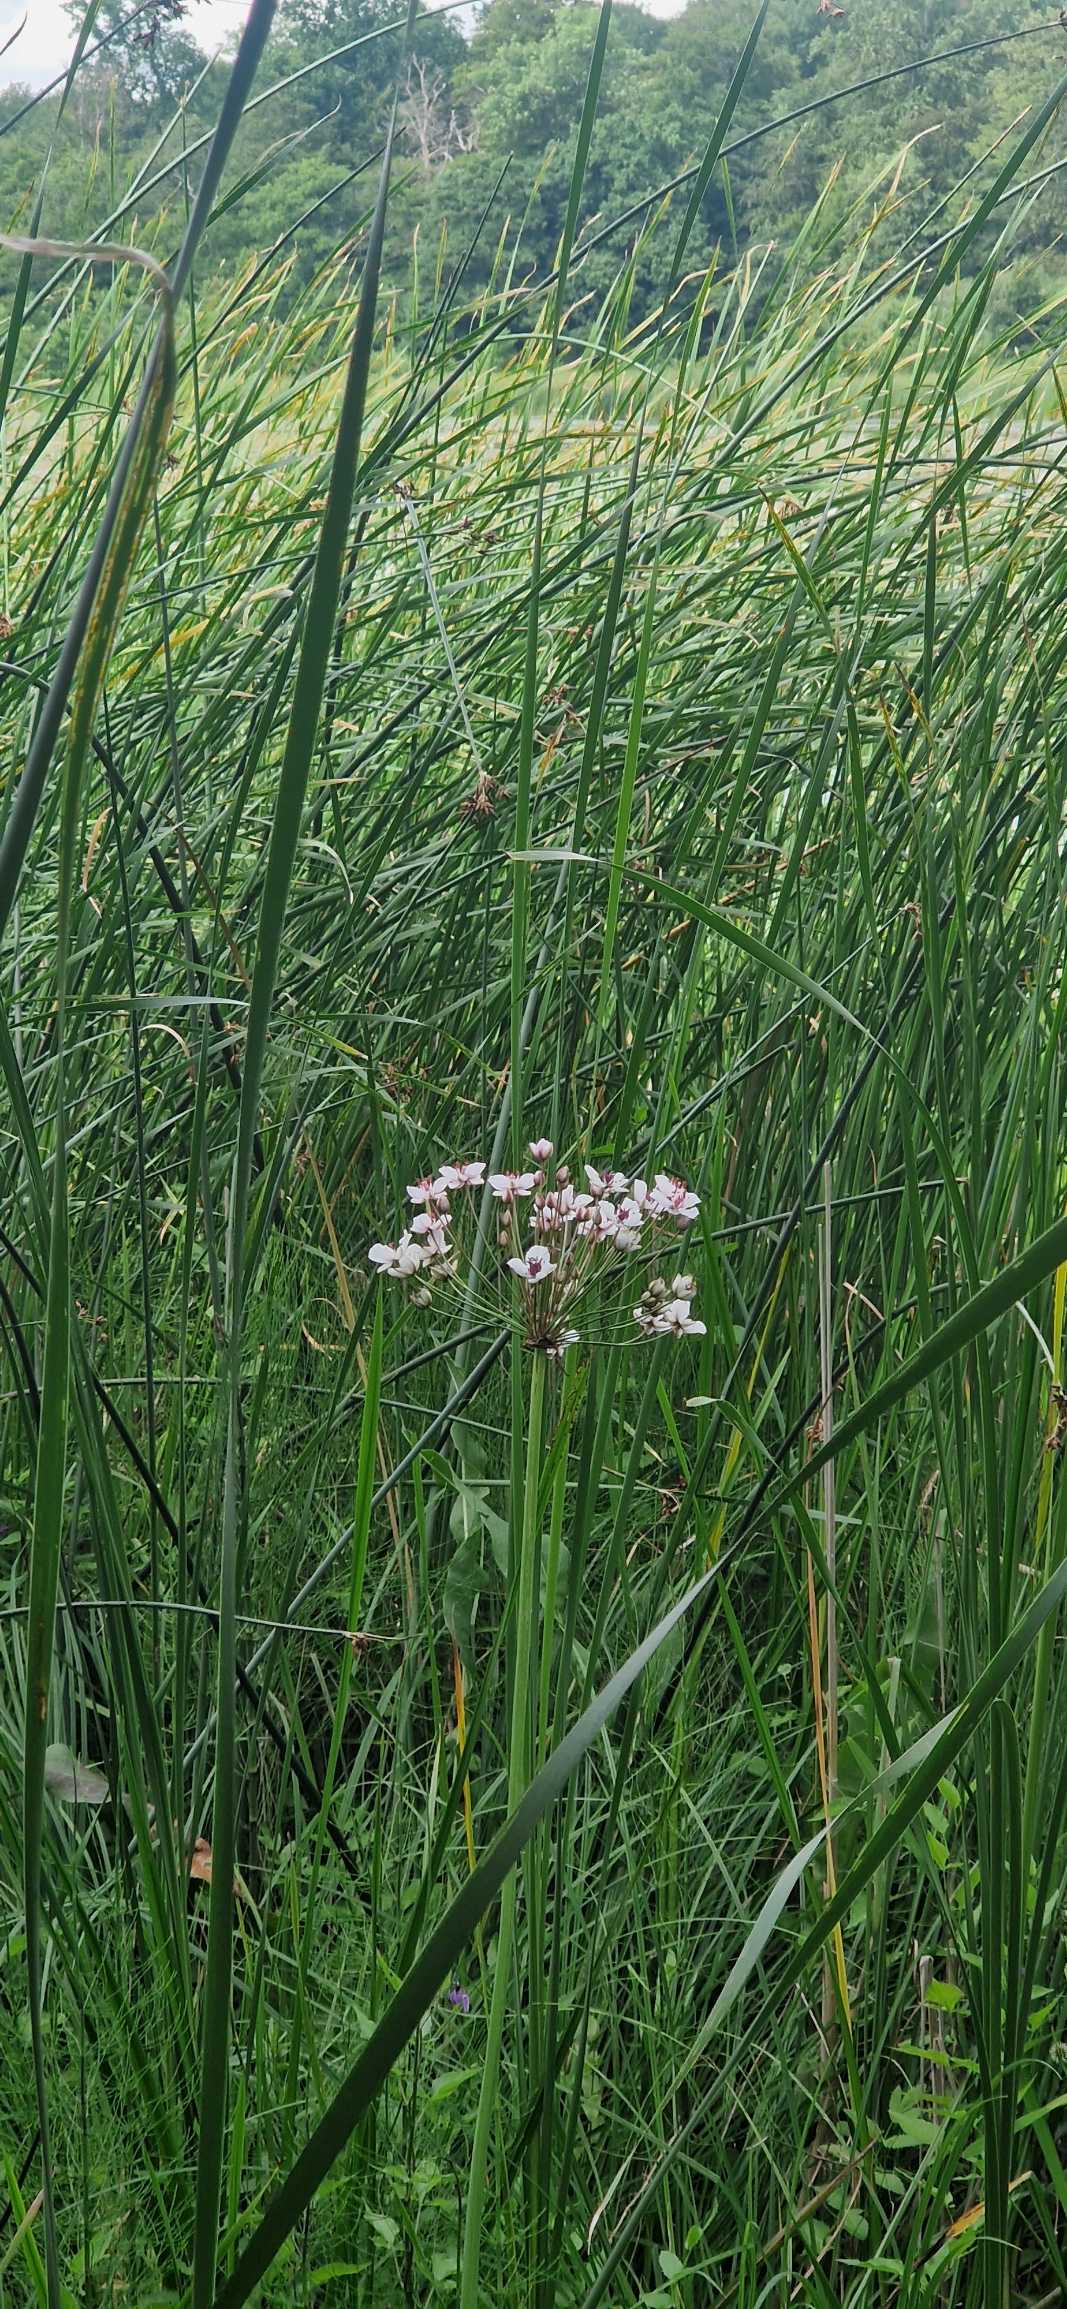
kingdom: Plantae
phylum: Tracheophyta
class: Liliopsida
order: Alismatales
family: Butomaceae
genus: Butomus
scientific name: Butomus umbellatus
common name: Brudelys
